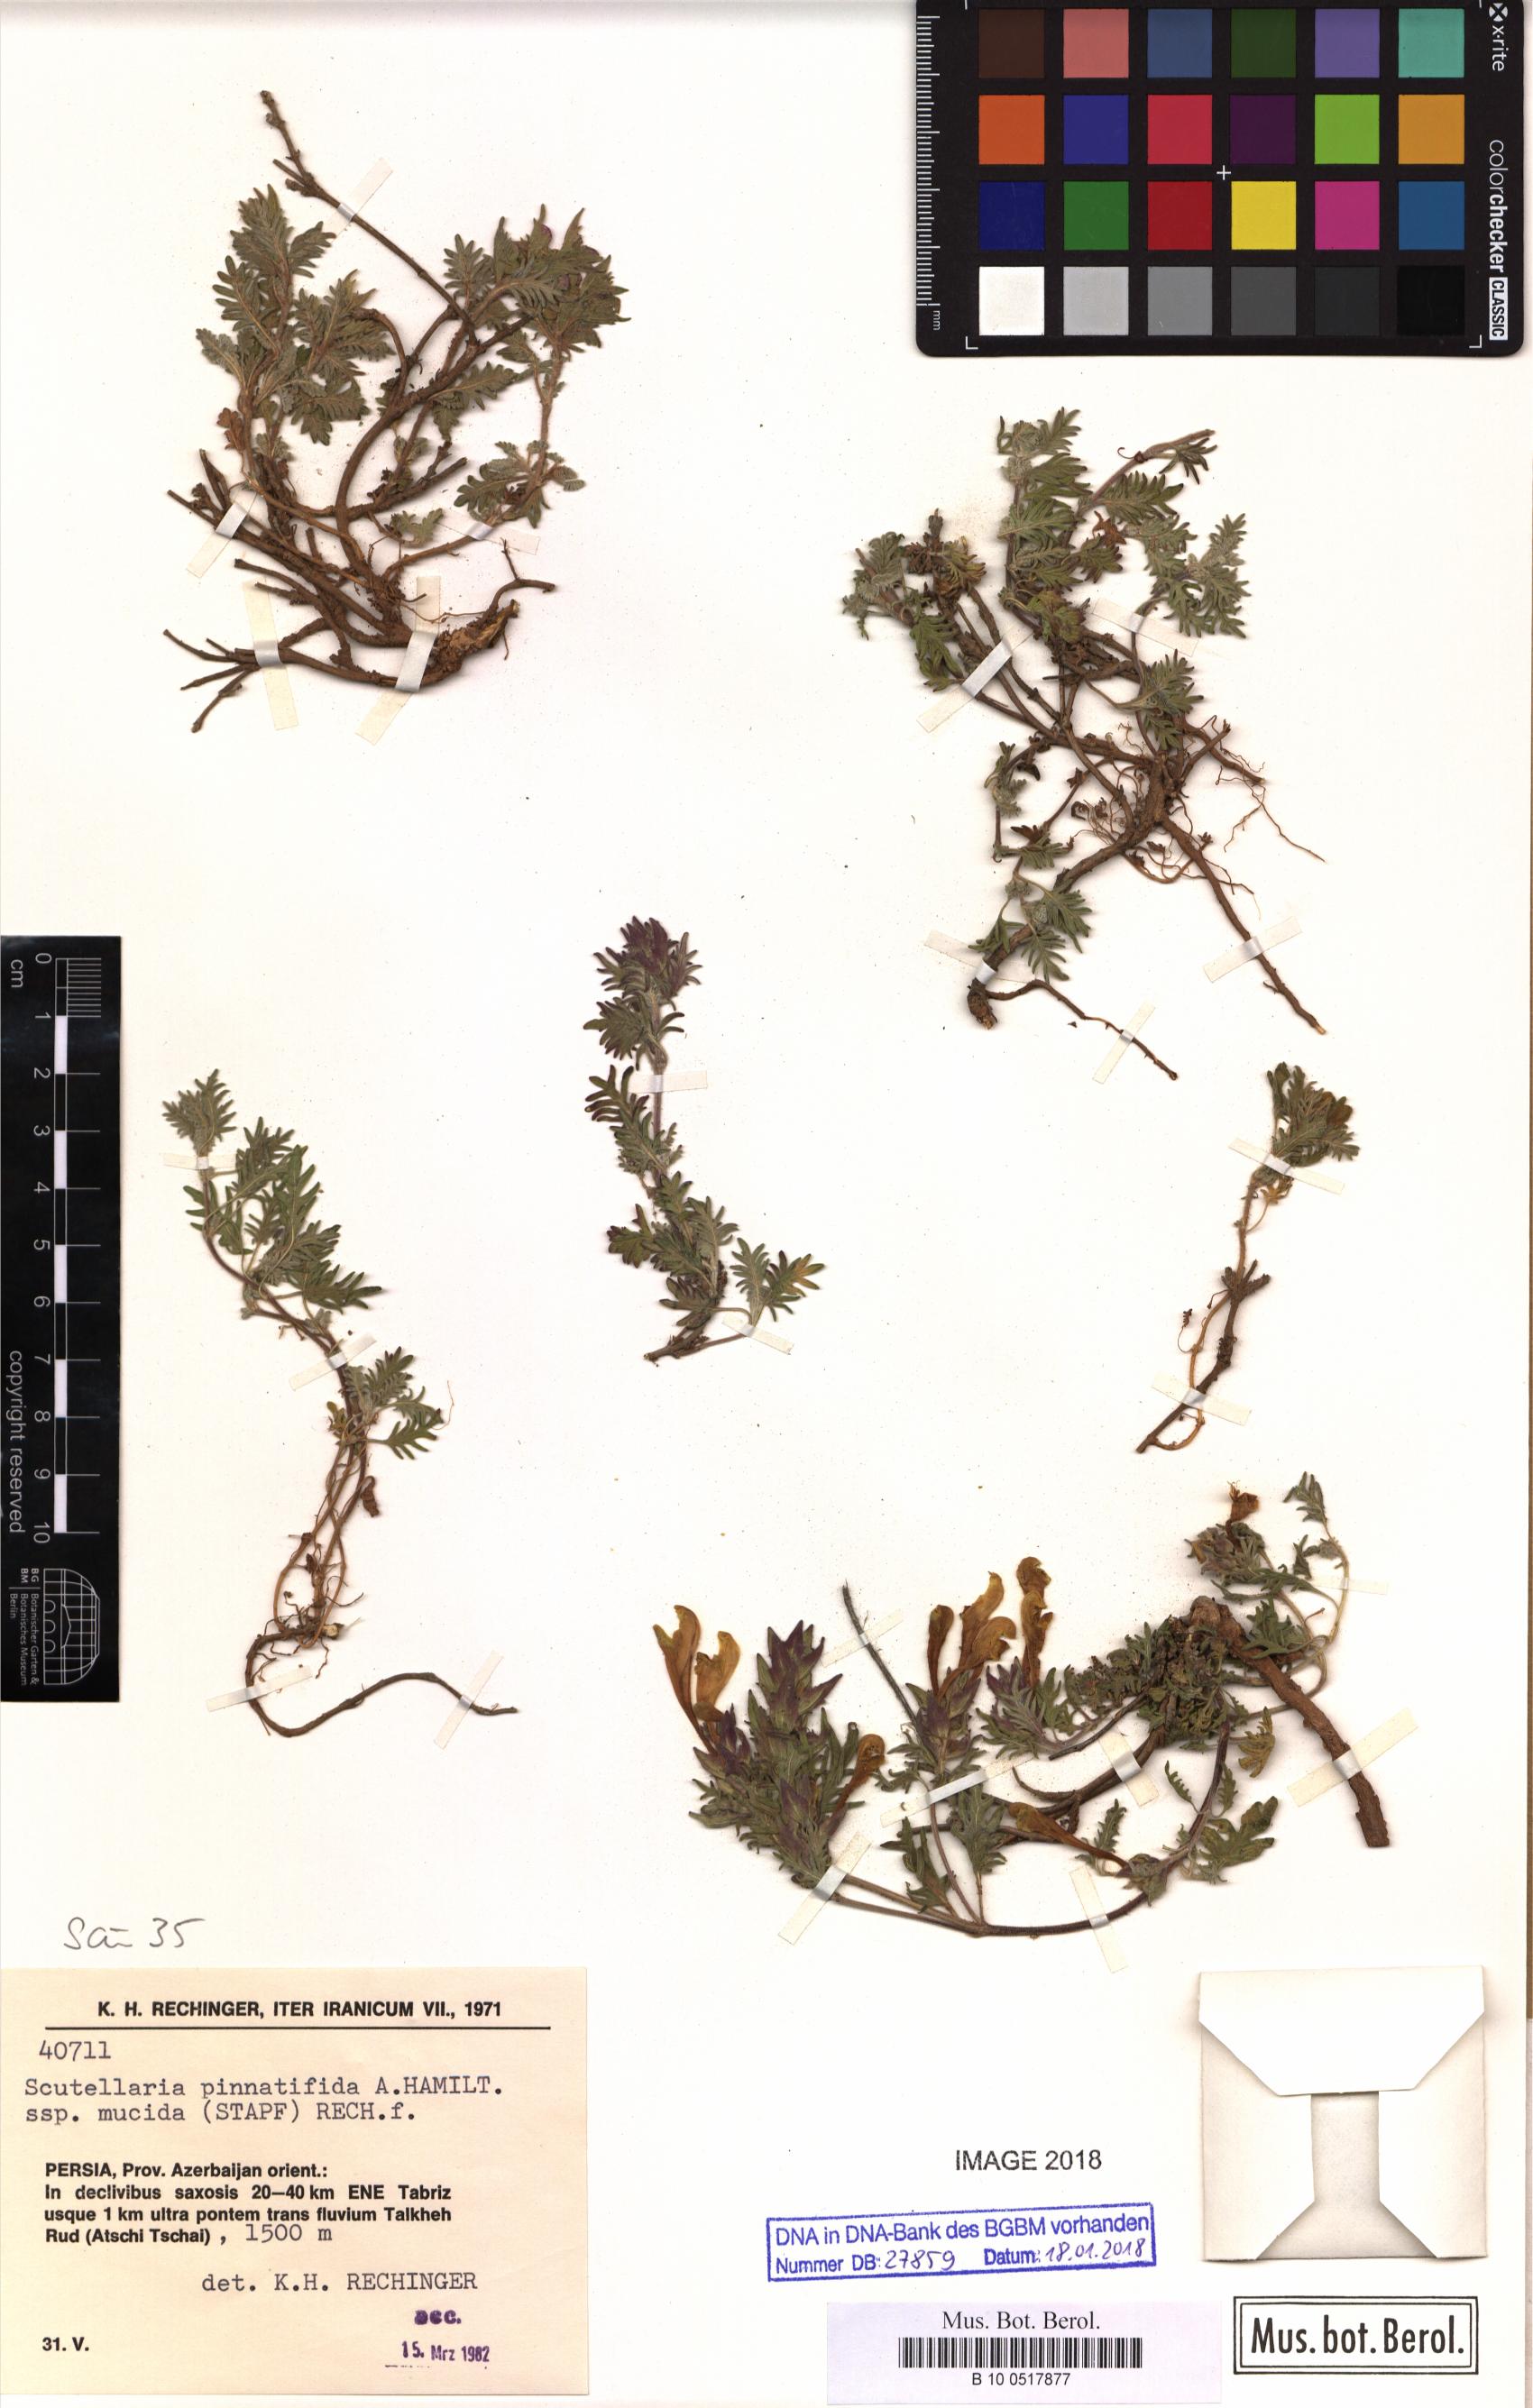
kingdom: Plantae
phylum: Tracheophyta
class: Magnoliopsida
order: Lamiales
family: Lamiaceae
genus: Scutellaria
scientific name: Scutellaria pinnatifida
